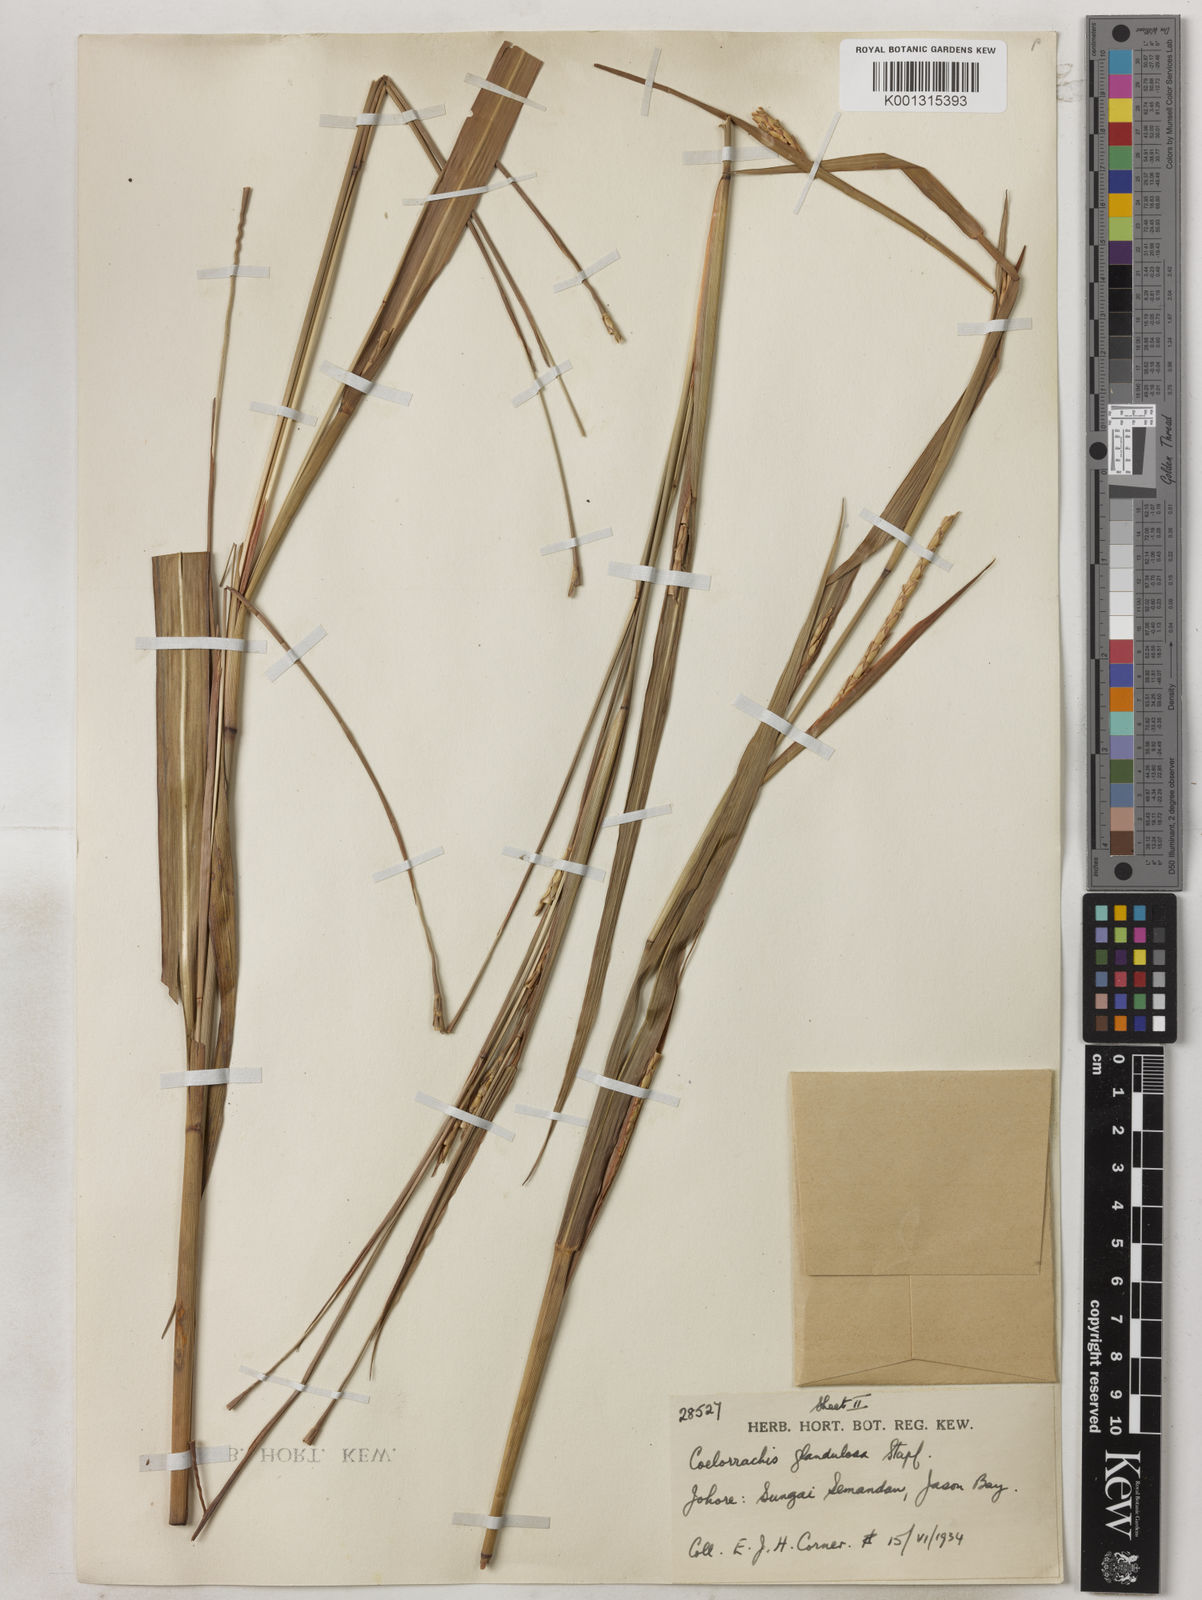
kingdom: Plantae
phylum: Tracheophyta
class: Liliopsida
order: Poales
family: Poaceae
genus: Rottboellia
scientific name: Rottboellia glandulosa
